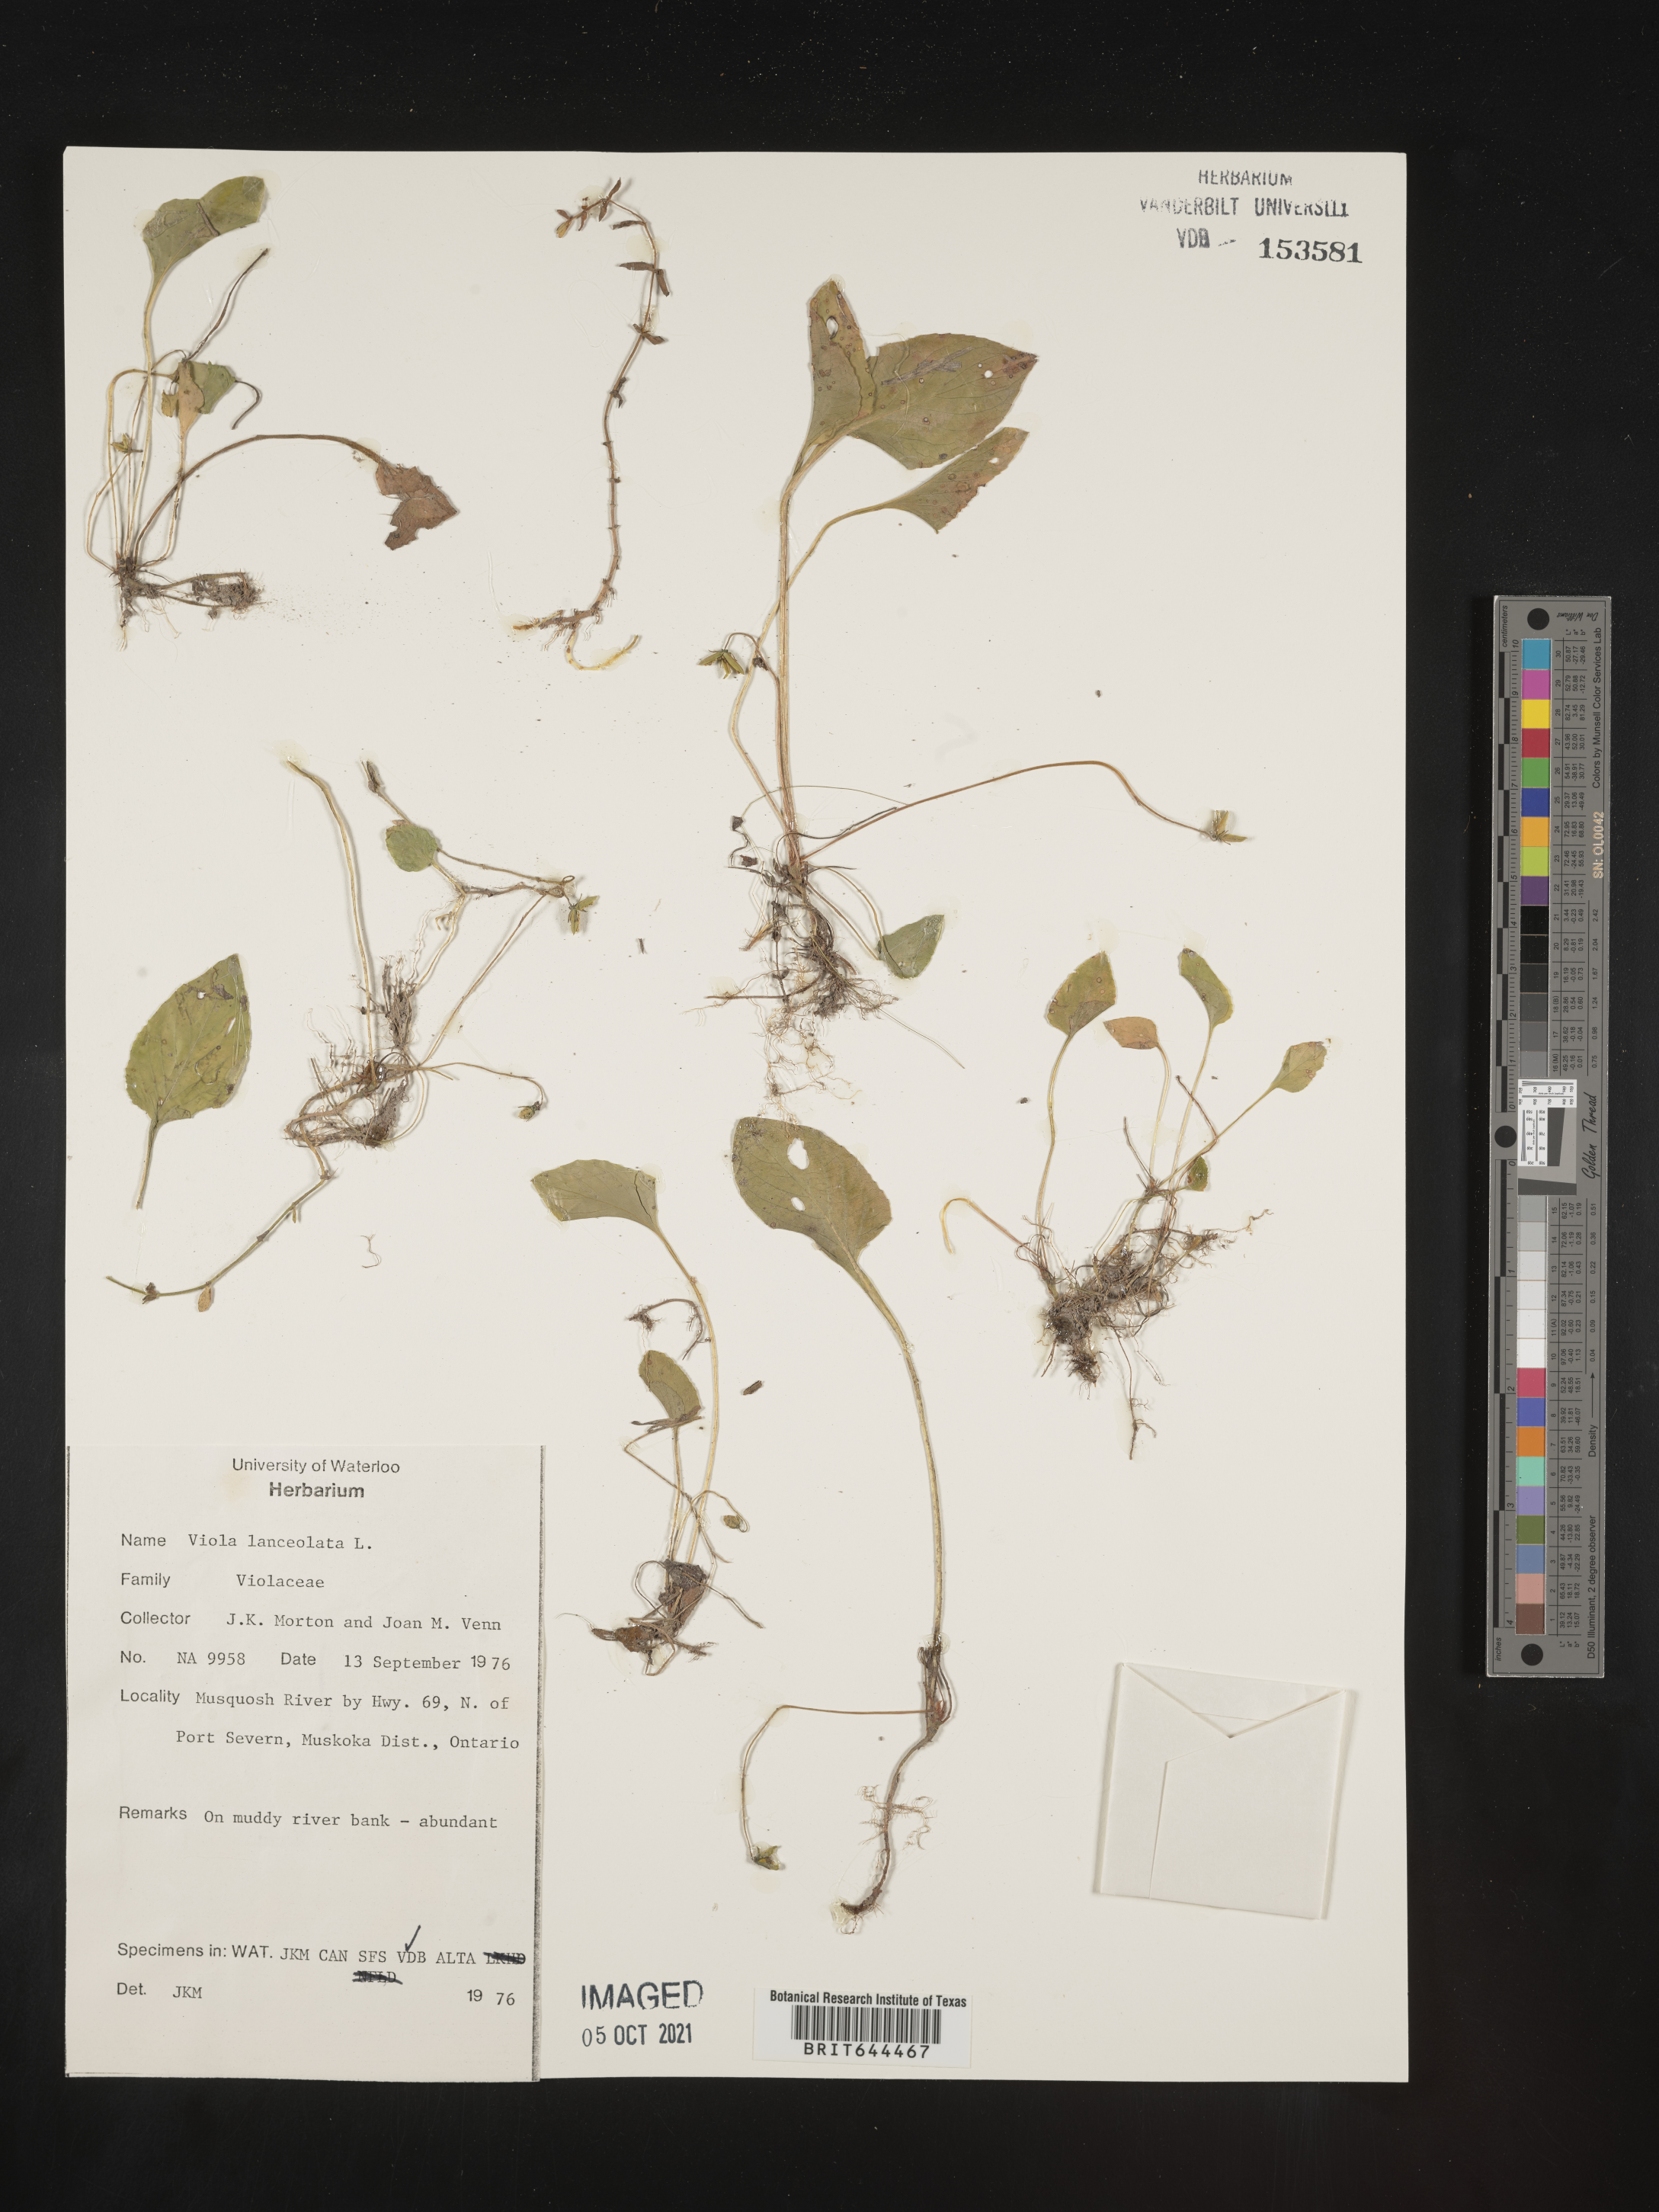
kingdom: Plantae
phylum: Tracheophyta
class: Magnoliopsida
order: Malpighiales
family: Violaceae
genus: Viola
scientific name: Viola
